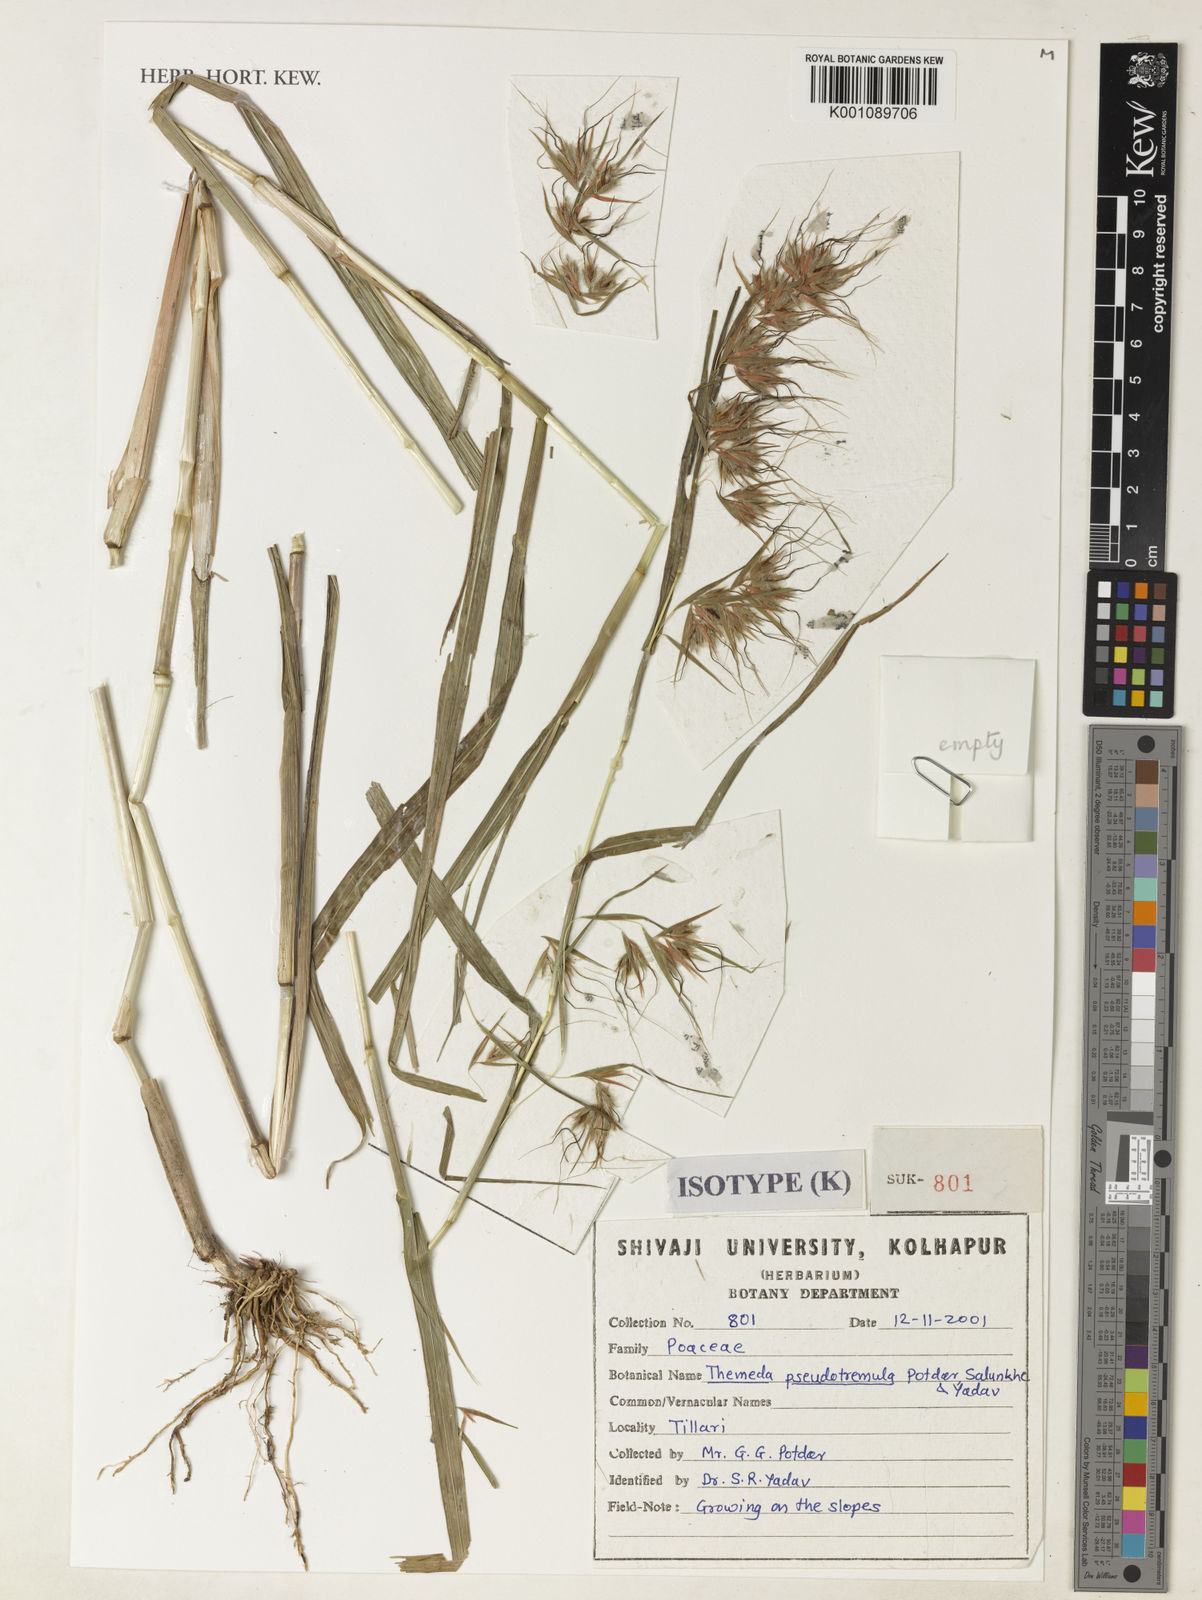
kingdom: Plantae
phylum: Tracheophyta
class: Liliopsida
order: Poales
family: Poaceae
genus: Themeda
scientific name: Themeda pseudotremula
